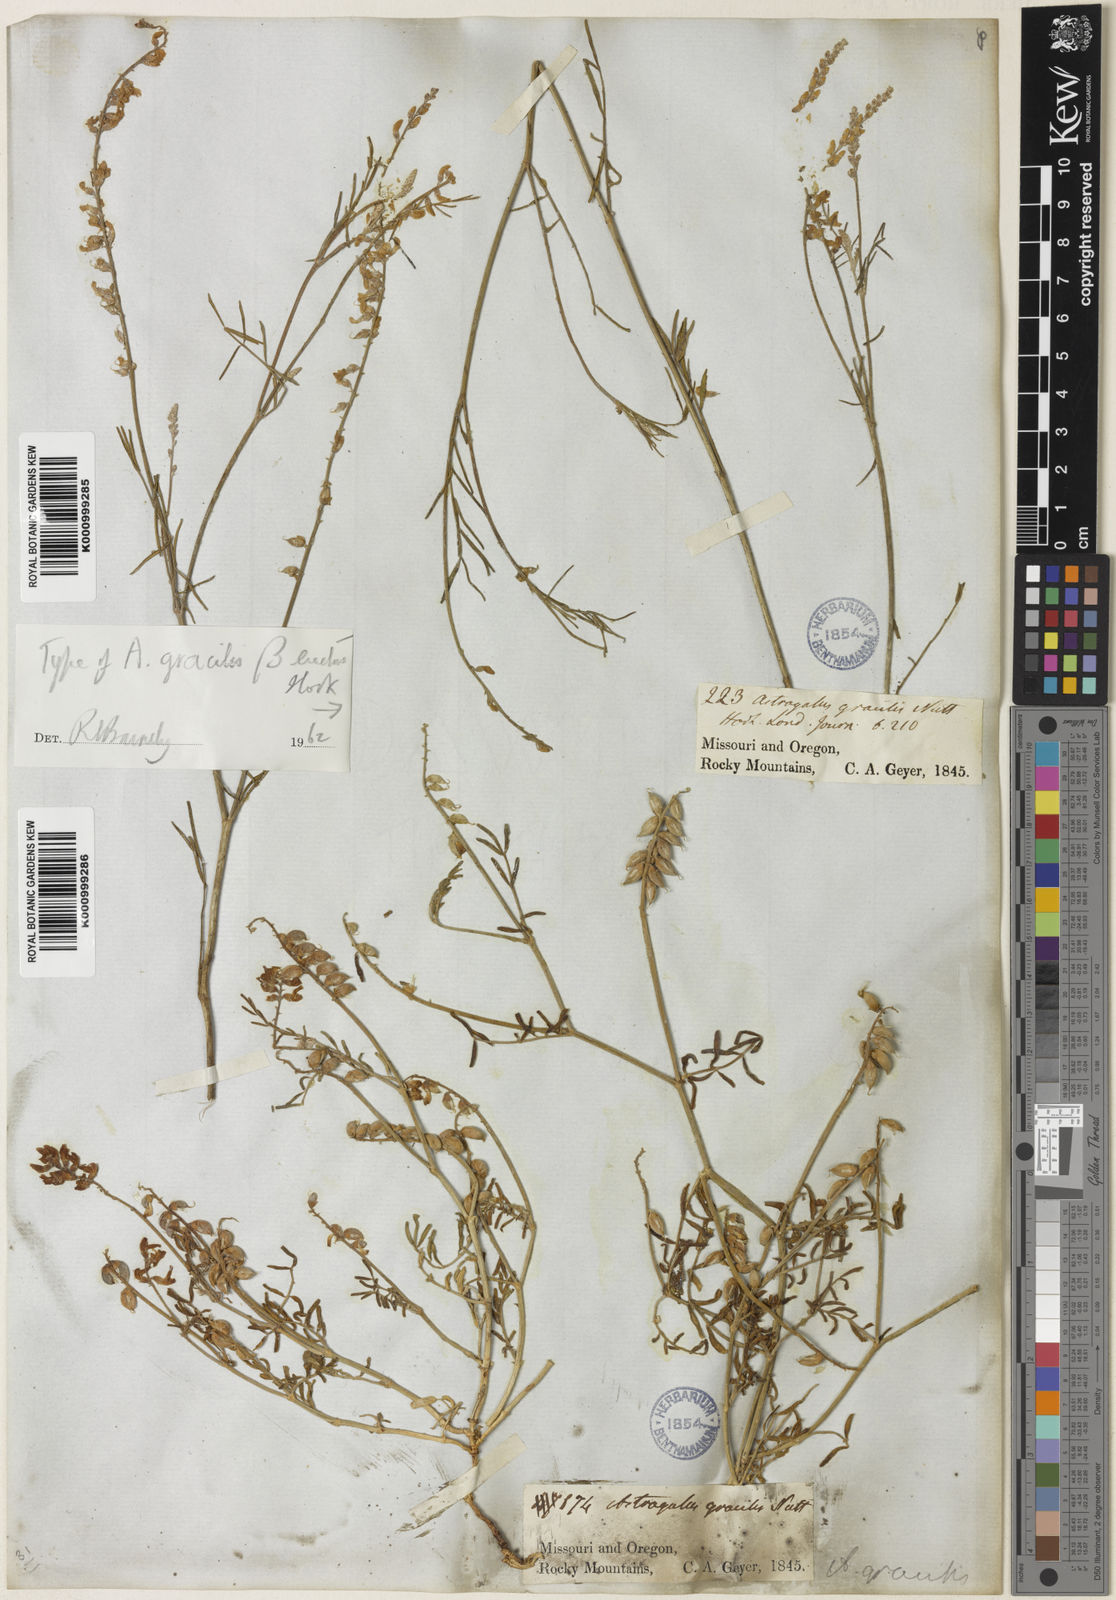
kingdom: Plantae
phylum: Tracheophyta
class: Magnoliopsida
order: Fabales
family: Fabaceae
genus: Astragalus
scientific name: Astragalus gracilis
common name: Slender milk-vetch
